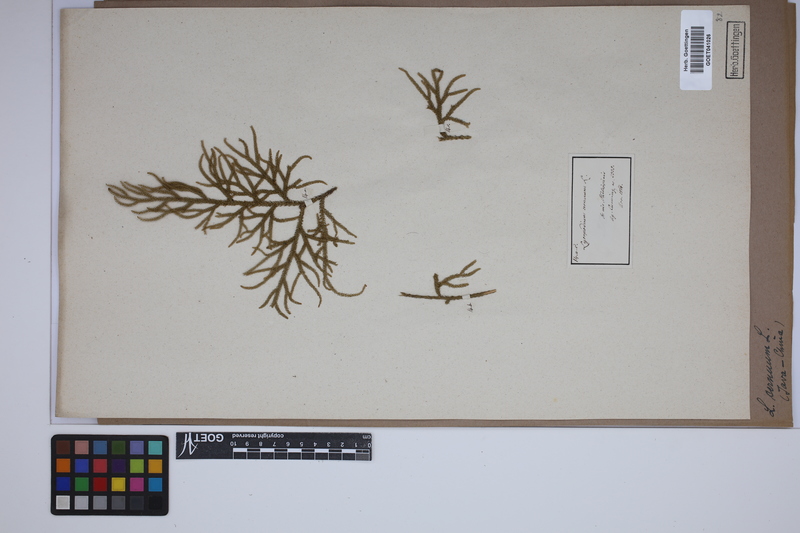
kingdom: Plantae
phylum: Tracheophyta
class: Lycopodiopsida
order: Lycopodiales
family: Lycopodiaceae
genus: Palhinhaea
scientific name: Palhinhaea cernua
